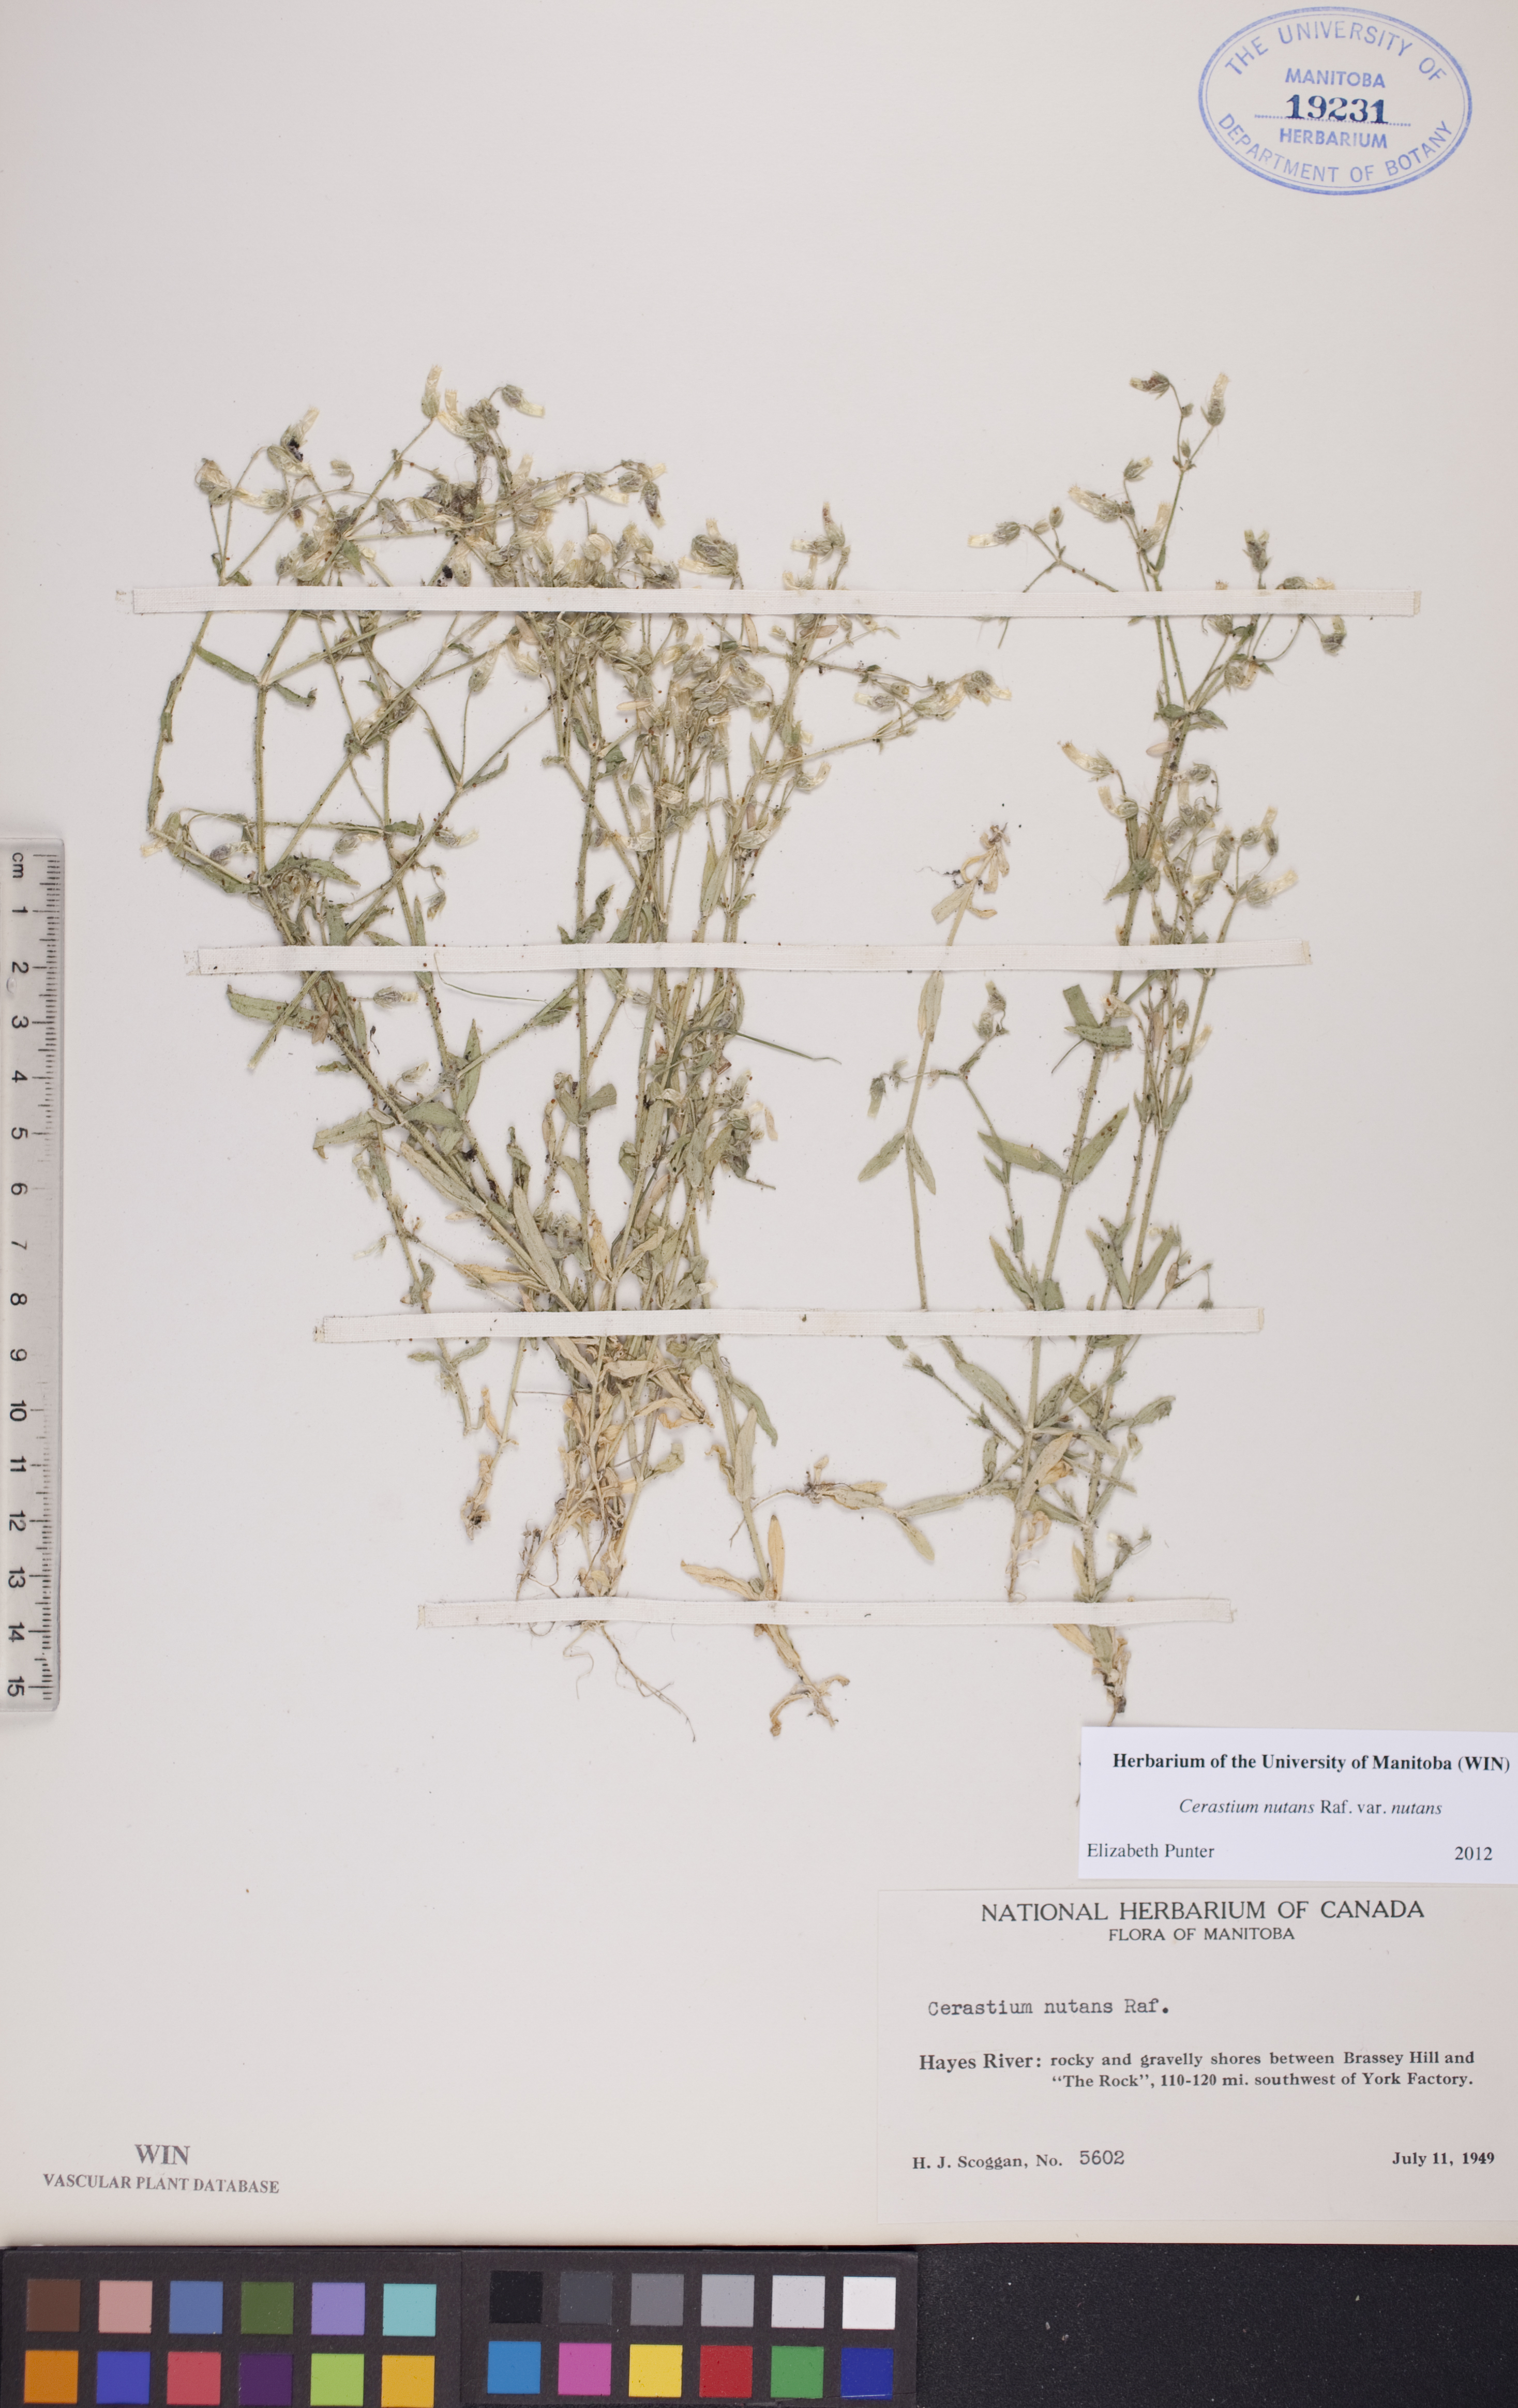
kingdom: Plantae
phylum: Tracheophyta
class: Magnoliopsida
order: Caryophyllales
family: Caryophyllaceae
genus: Cerastium
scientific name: Cerastium nutans
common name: Long-stalked chickweed
